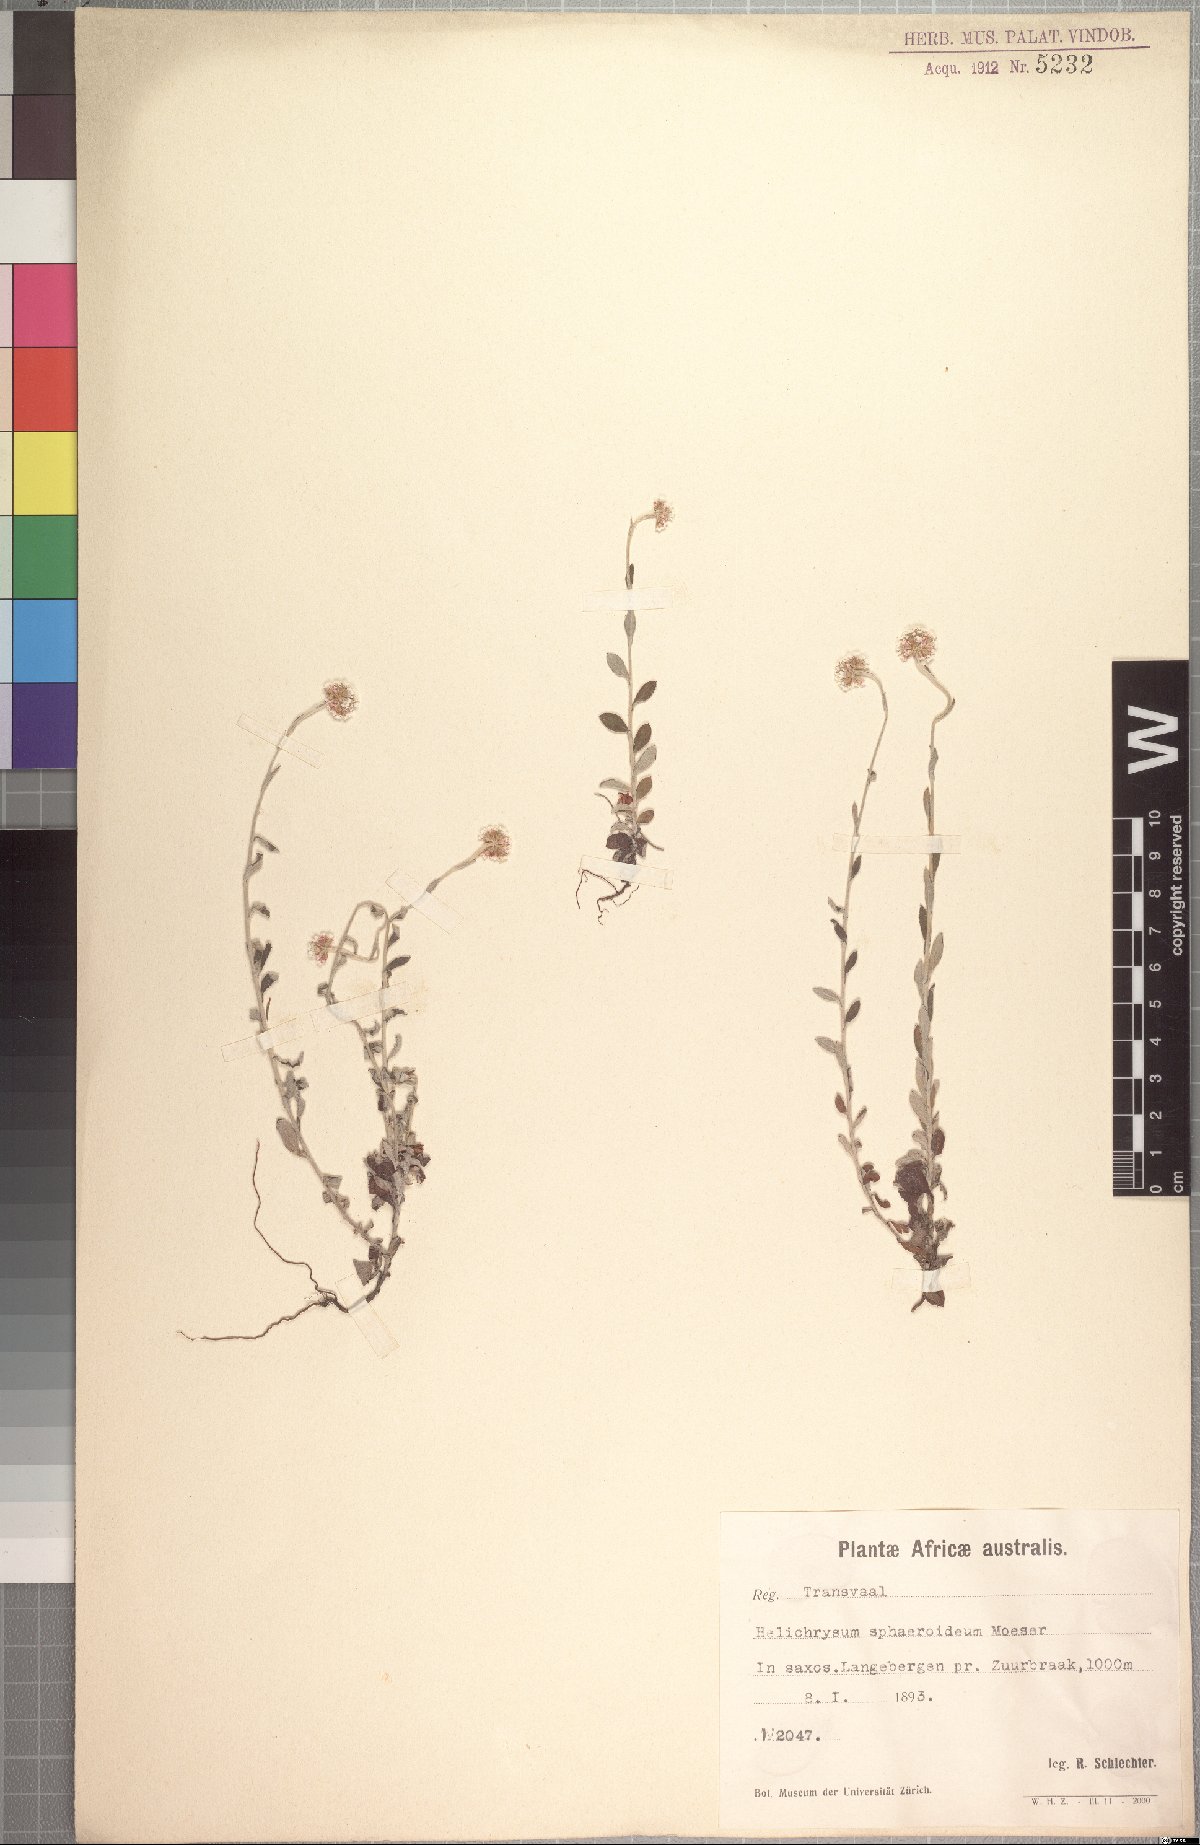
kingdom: Plantae
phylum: Tracheophyta
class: Magnoliopsida
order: Asterales
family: Asteraceae
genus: Helichrysum
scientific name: Helichrysum sphaeroideum
